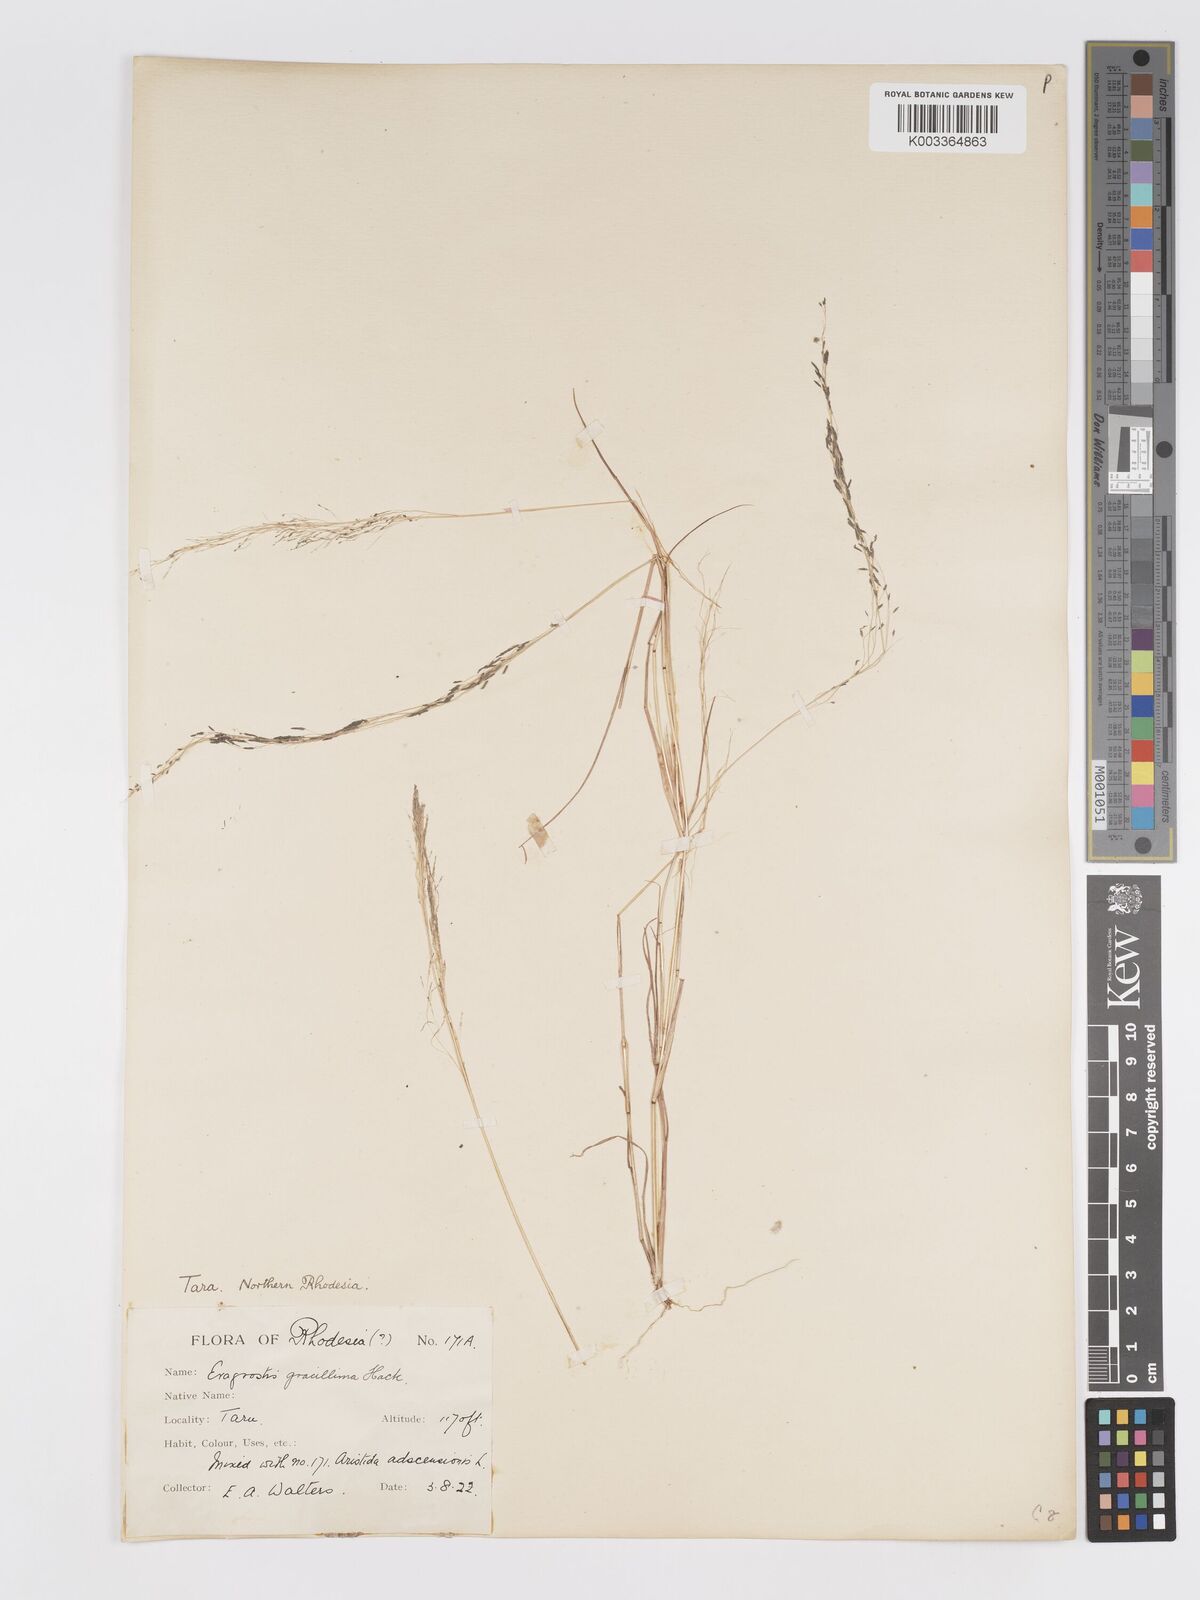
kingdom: Plantae
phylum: Tracheophyta
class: Liliopsida
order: Poales
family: Poaceae
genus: Eragrostis
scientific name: Eragrostis aethiopica
